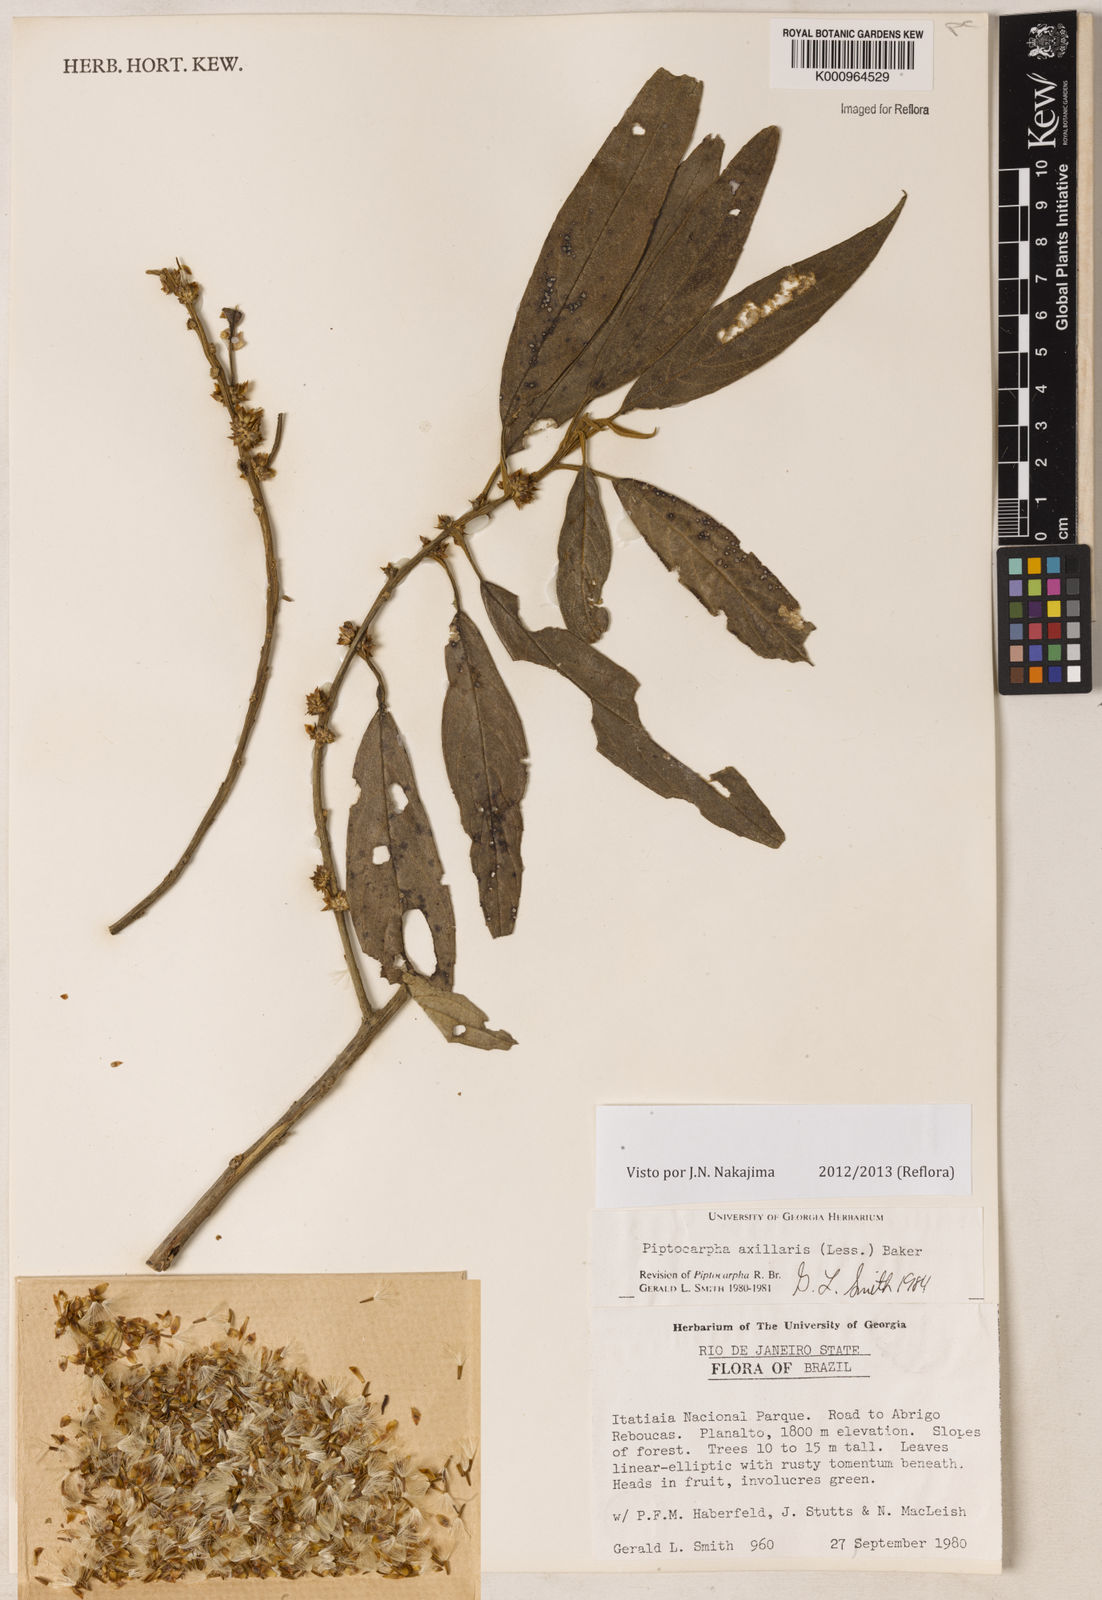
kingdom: Plantae
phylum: Tracheophyta
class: Magnoliopsida
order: Asterales
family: Asteraceae
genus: Piptocarpha
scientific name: Piptocarpha axillaris
